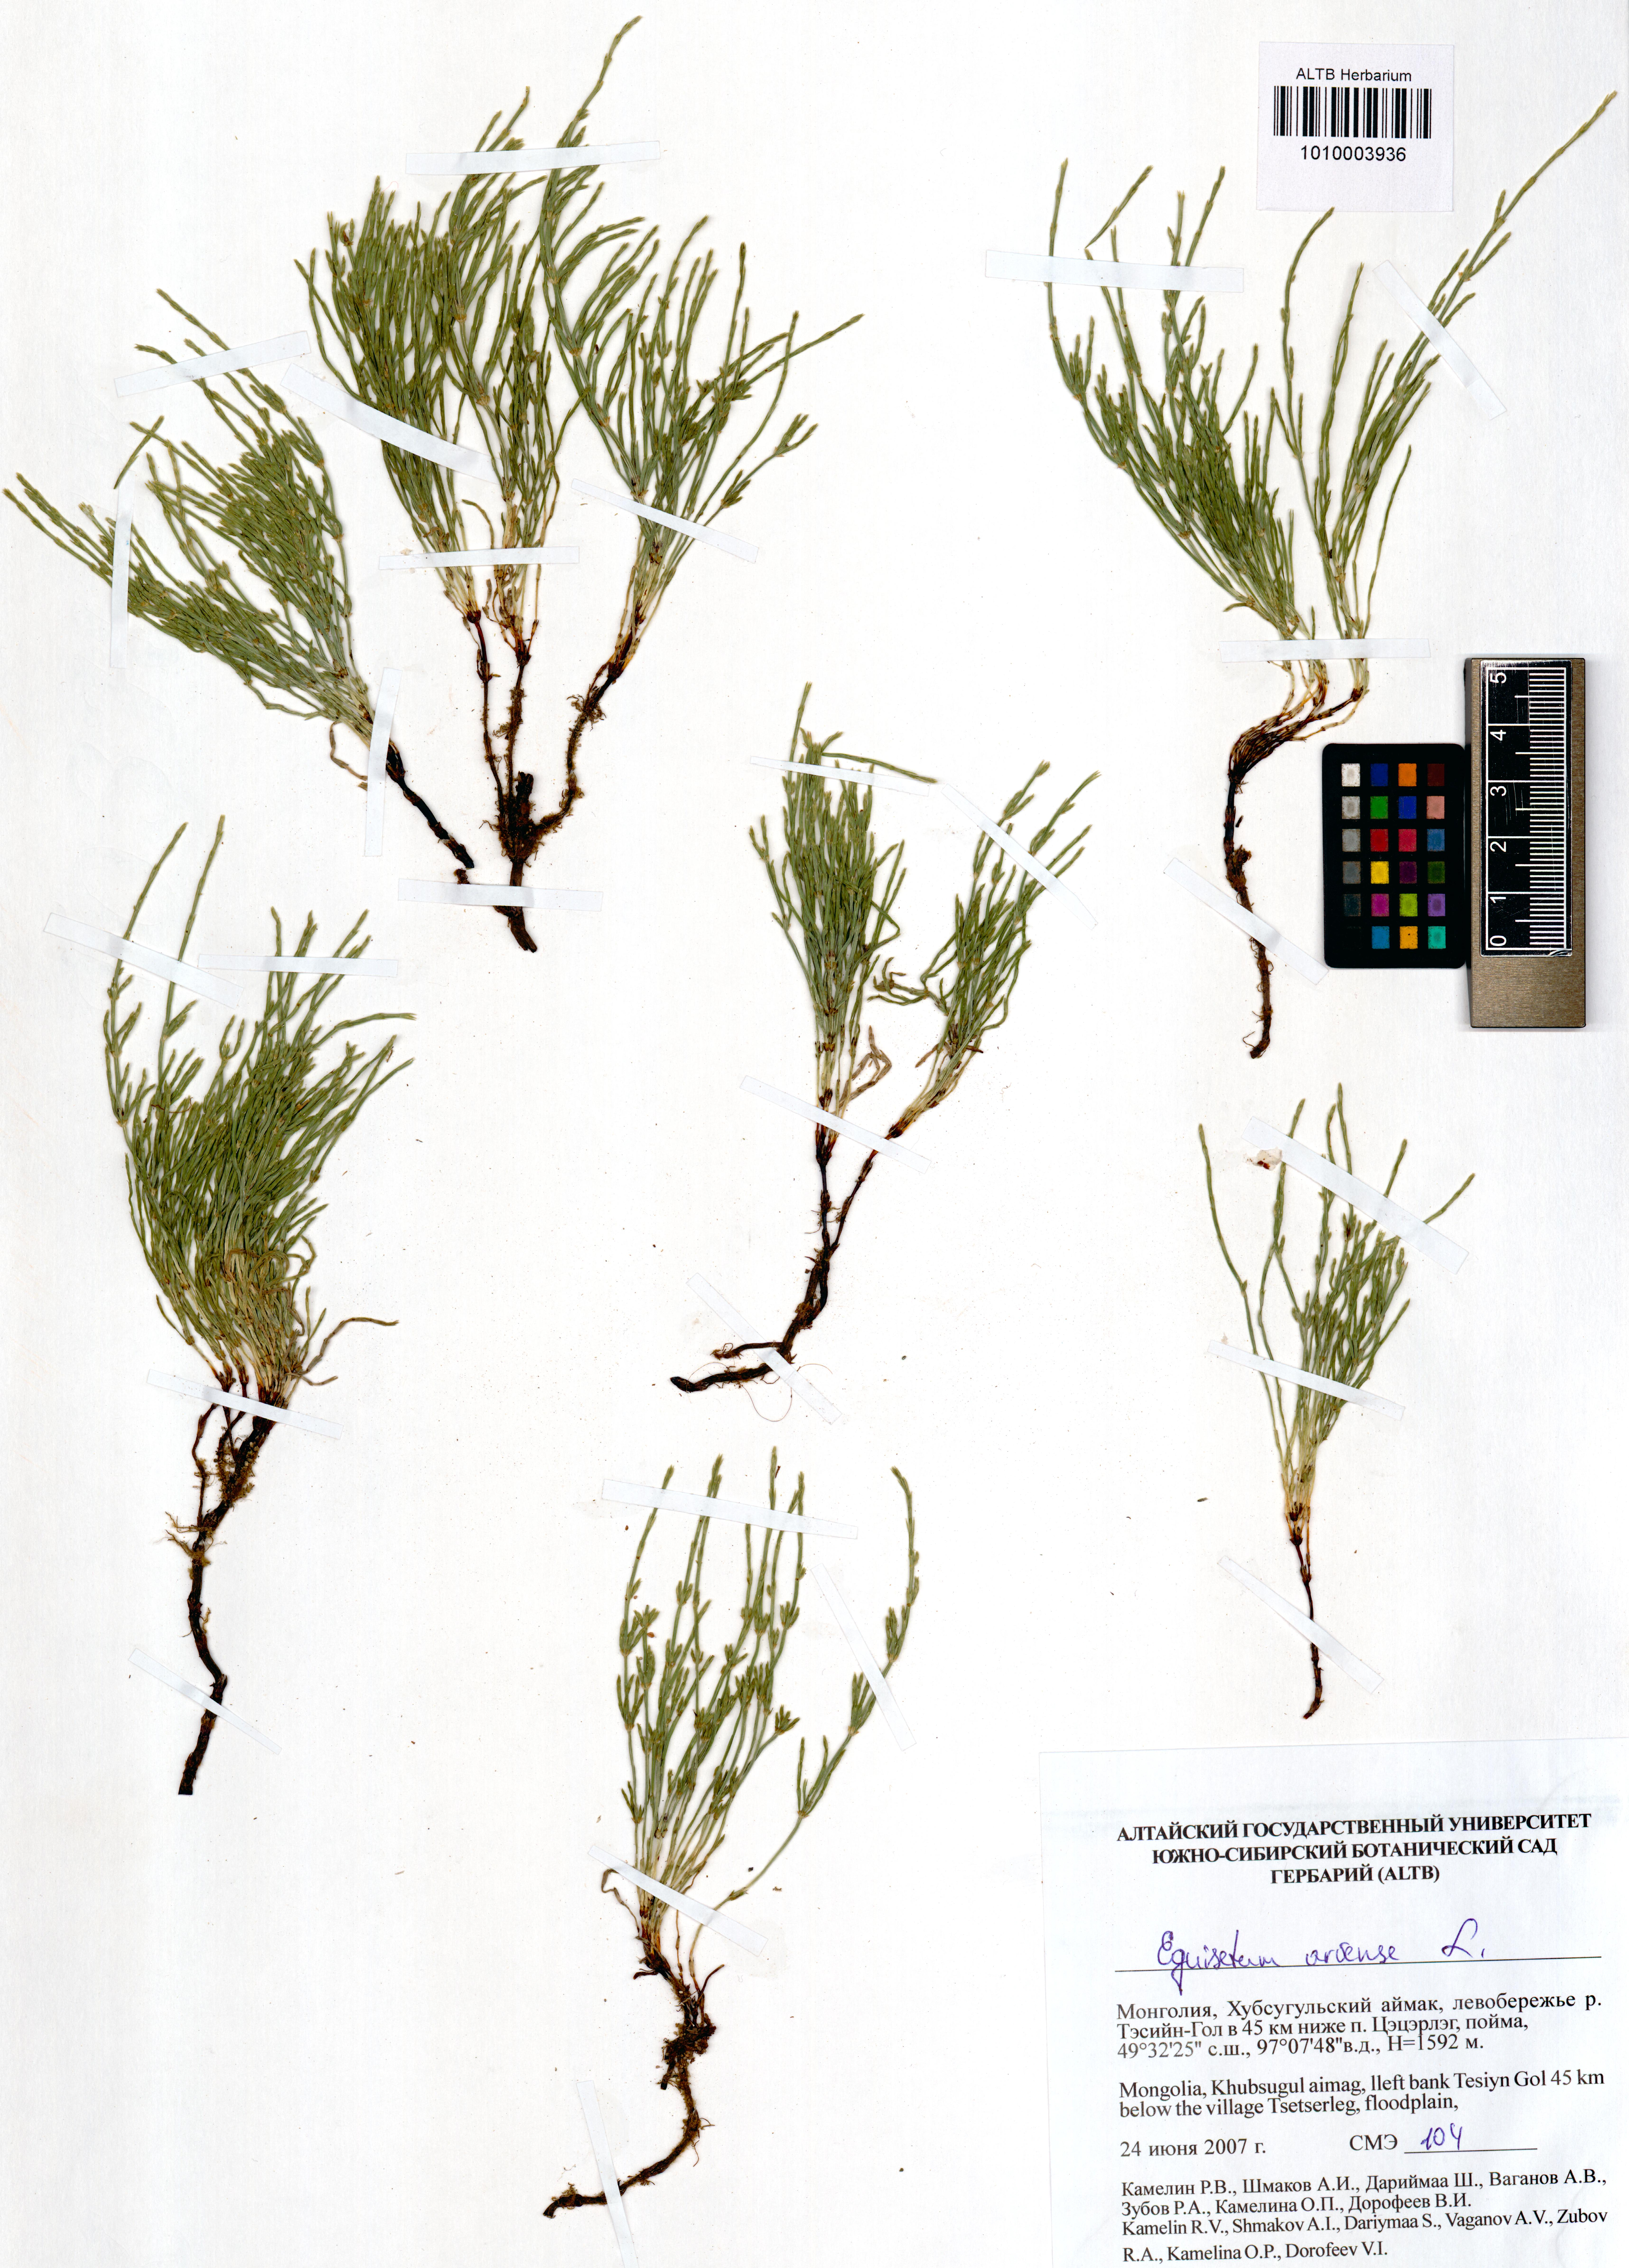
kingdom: Plantae
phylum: Tracheophyta
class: Polypodiopsida
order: Equisetales
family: Equisetaceae
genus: Equisetum
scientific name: Equisetum arvense
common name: Field horsetail
